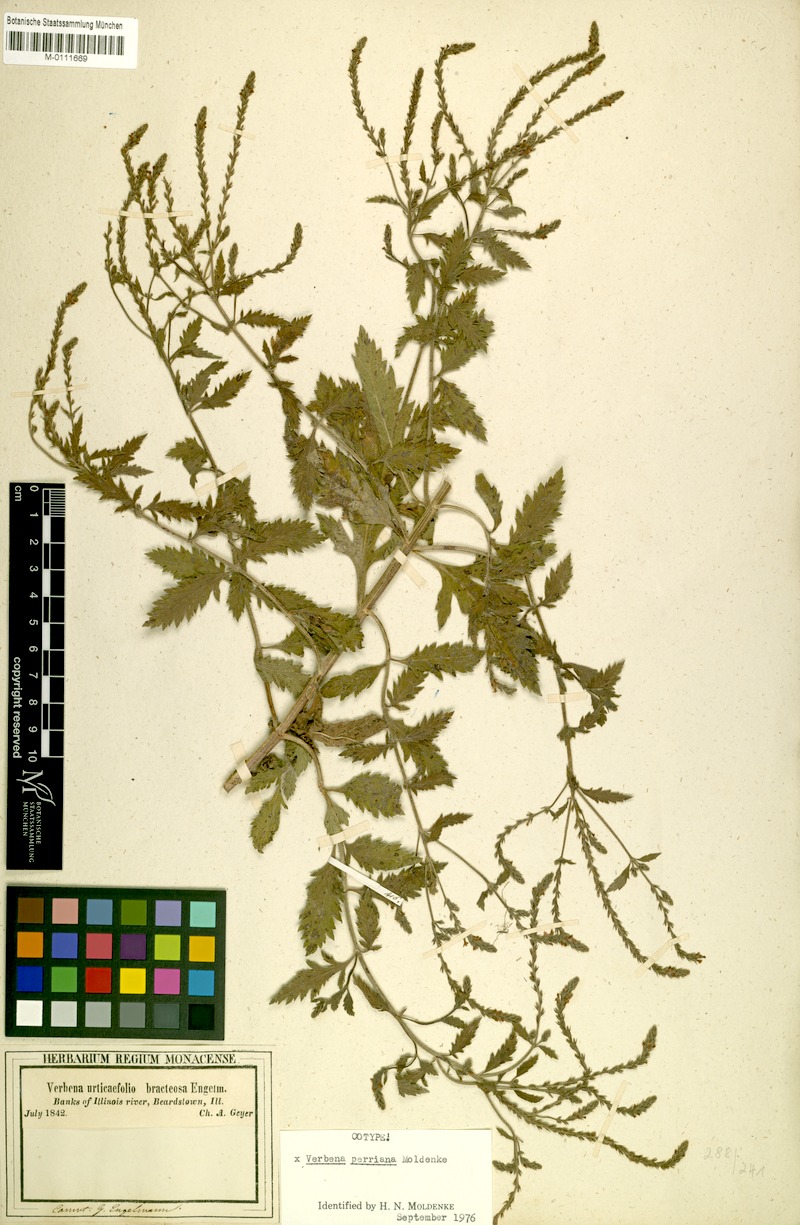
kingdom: Plantae
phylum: Tracheophyta
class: Magnoliopsida
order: Lamiales
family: Verbenaceae
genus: Verbena
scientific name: Verbena perriana
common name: Perry's vervain
